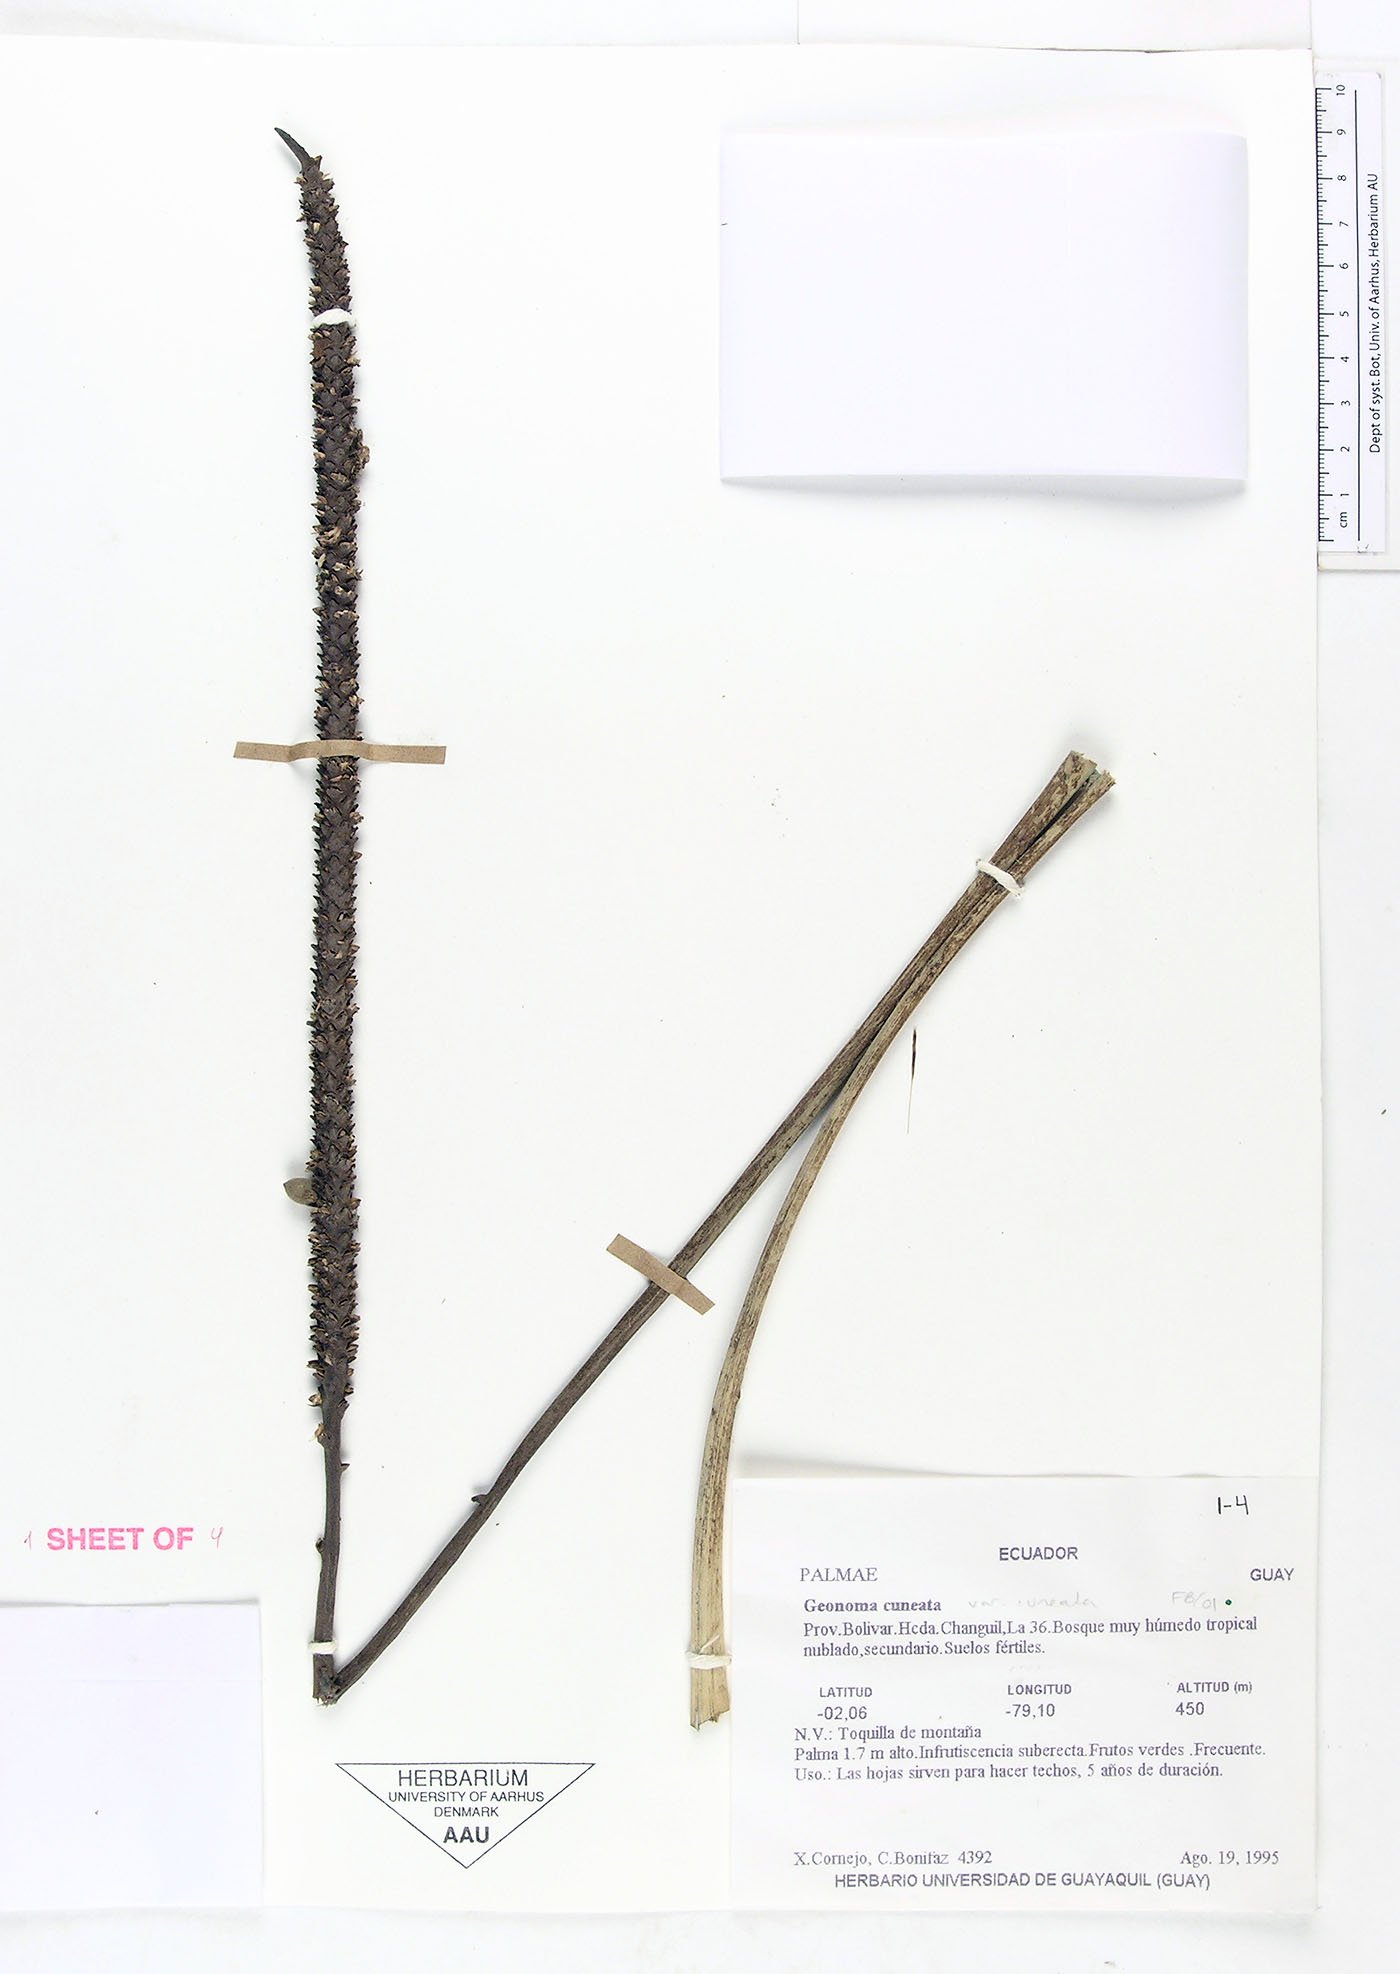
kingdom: Plantae
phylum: Tracheophyta
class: Liliopsida
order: Arecales
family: Arecaceae
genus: Geonoma
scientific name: Geonoma cuneata
